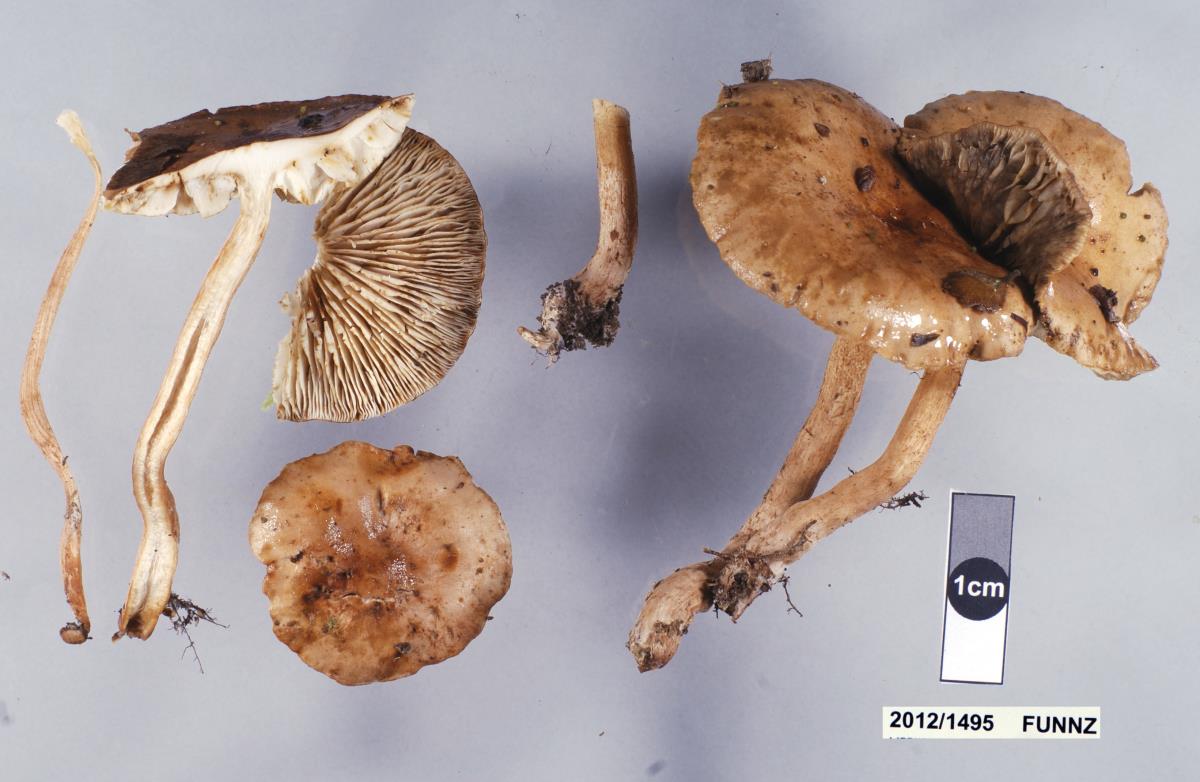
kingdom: Fungi
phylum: Basidiomycota
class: Agaricomycetes
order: Agaricales
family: Tricholomataceae
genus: Tricholoma
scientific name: Tricholoma elegans
